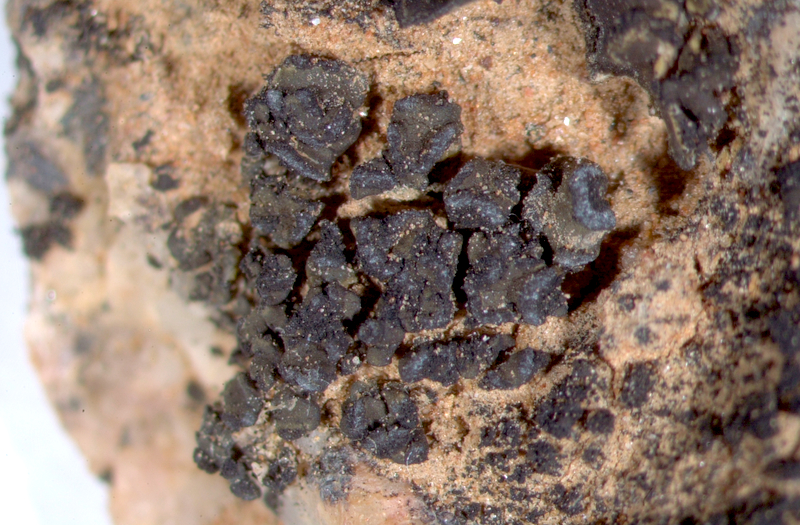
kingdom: Fungi
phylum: Ascomycota
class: Lichinomycetes
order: Lichinales
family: Lichinaceae
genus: Peccania
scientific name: Peccania
